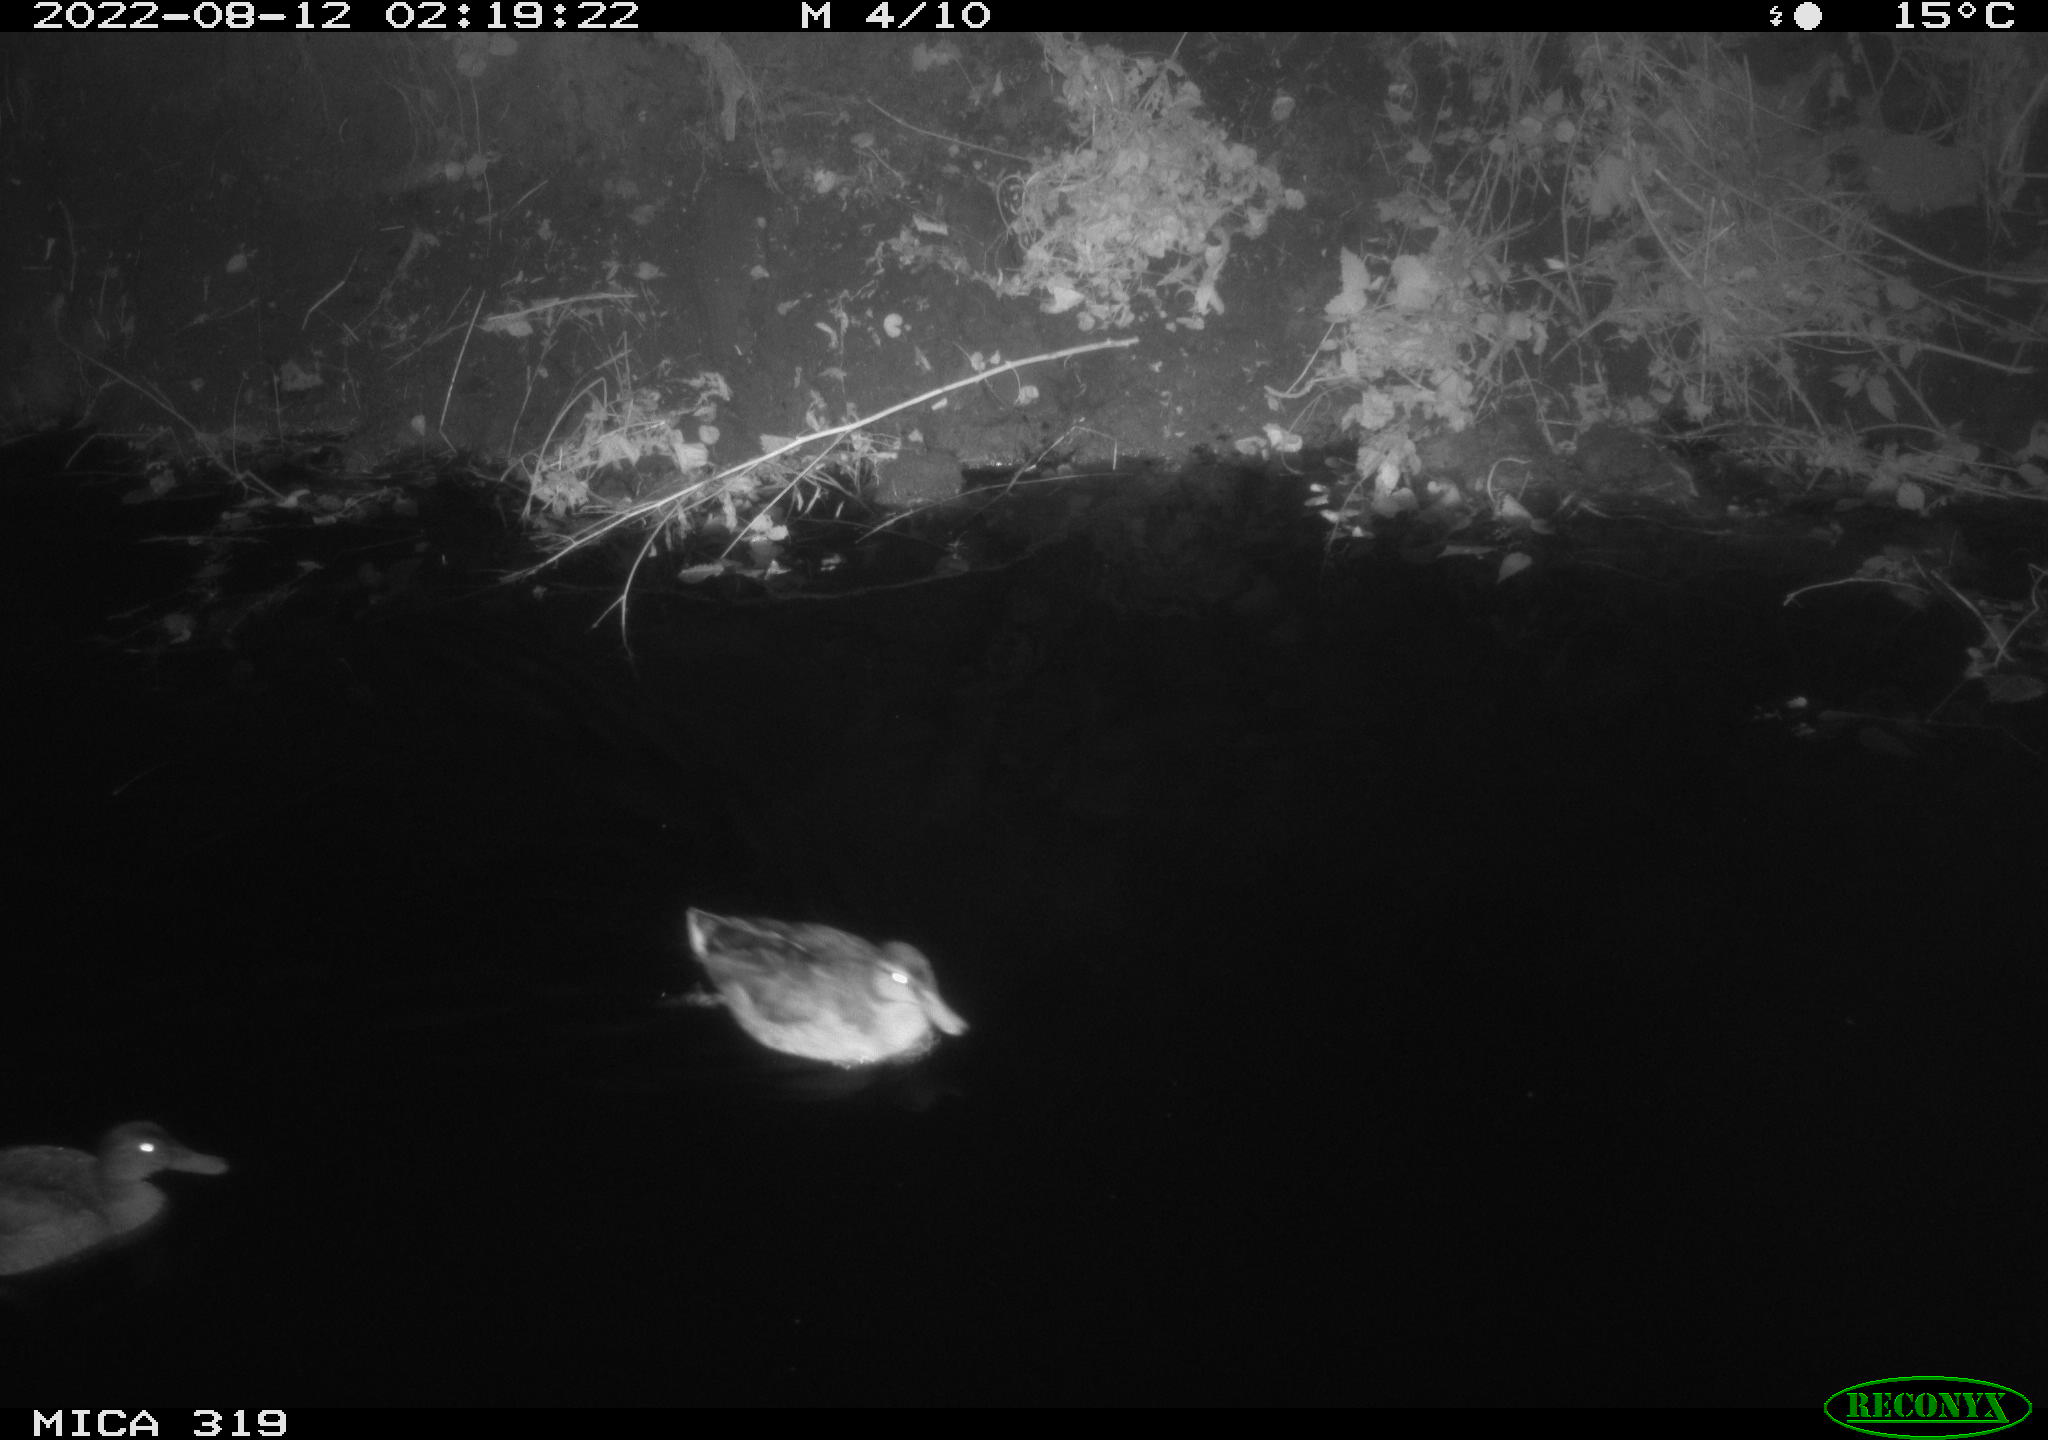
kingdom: Animalia
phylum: Chordata
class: Aves
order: Anseriformes
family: Anatidae
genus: Anas
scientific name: Anas
